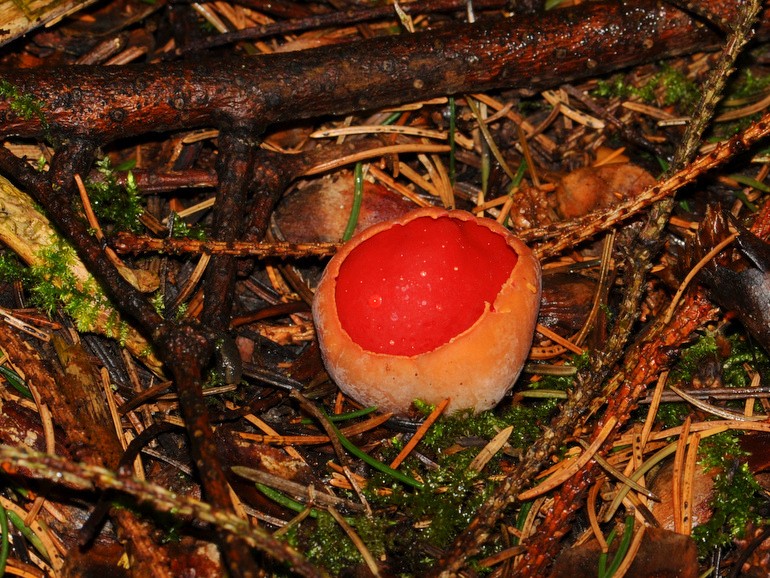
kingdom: Fungi
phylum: Ascomycota
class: Pezizomycetes
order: Pezizales
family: Sarcoscyphaceae
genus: Sarcoscypha
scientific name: Sarcoscypha austriaca
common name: krølhåret pragtbæger
